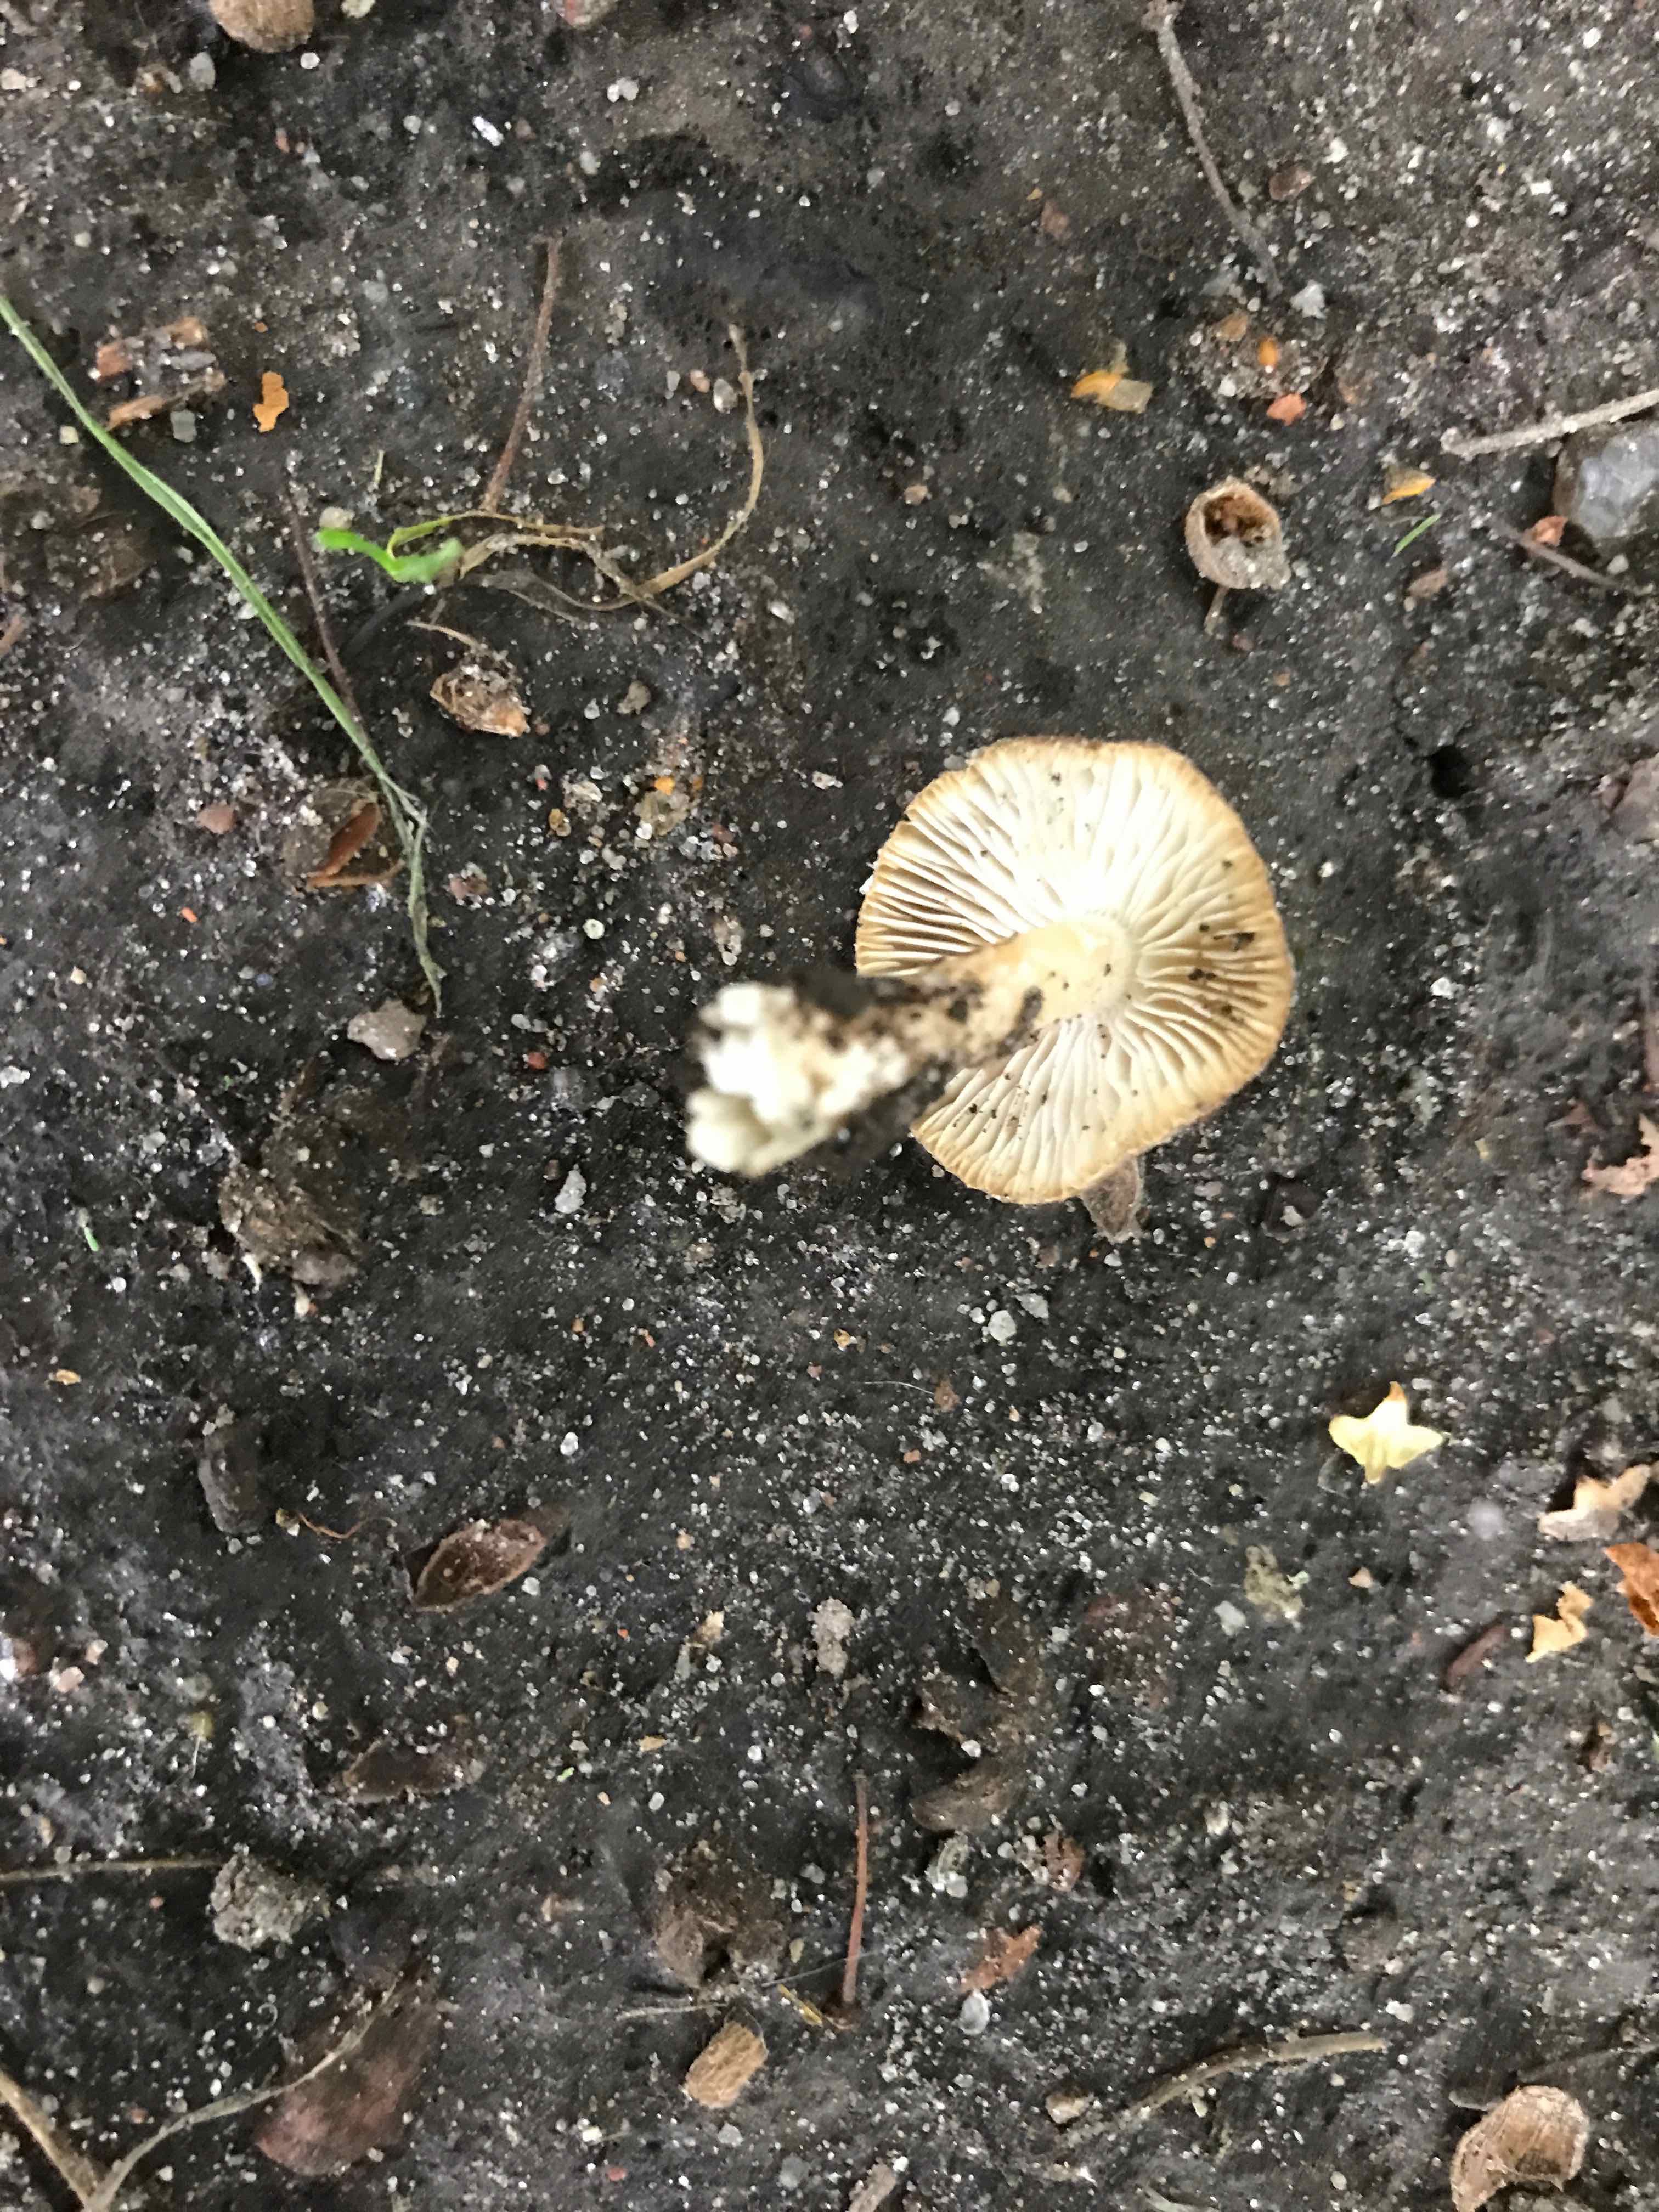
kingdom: Fungi
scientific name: Fungi
